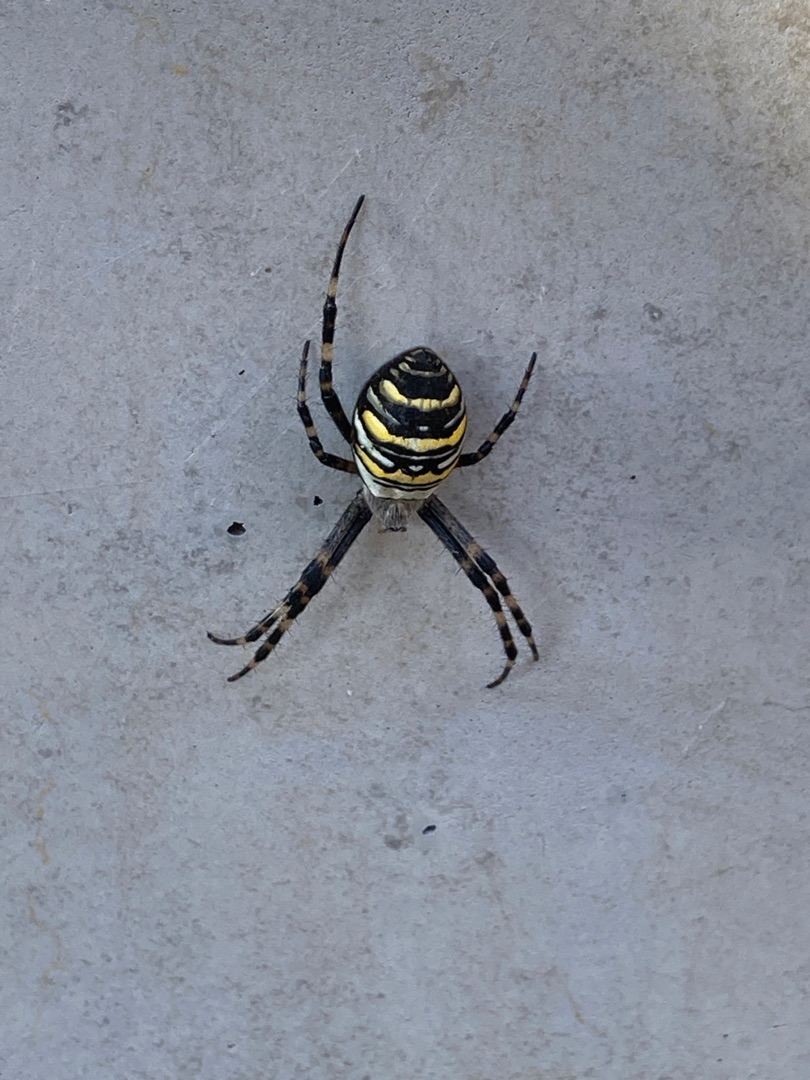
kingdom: Animalia
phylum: Arthropoda
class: Arachnida
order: Araneae
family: Araneidae
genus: Argiope
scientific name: Argiope bruennichi
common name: Hvepseedderkop
